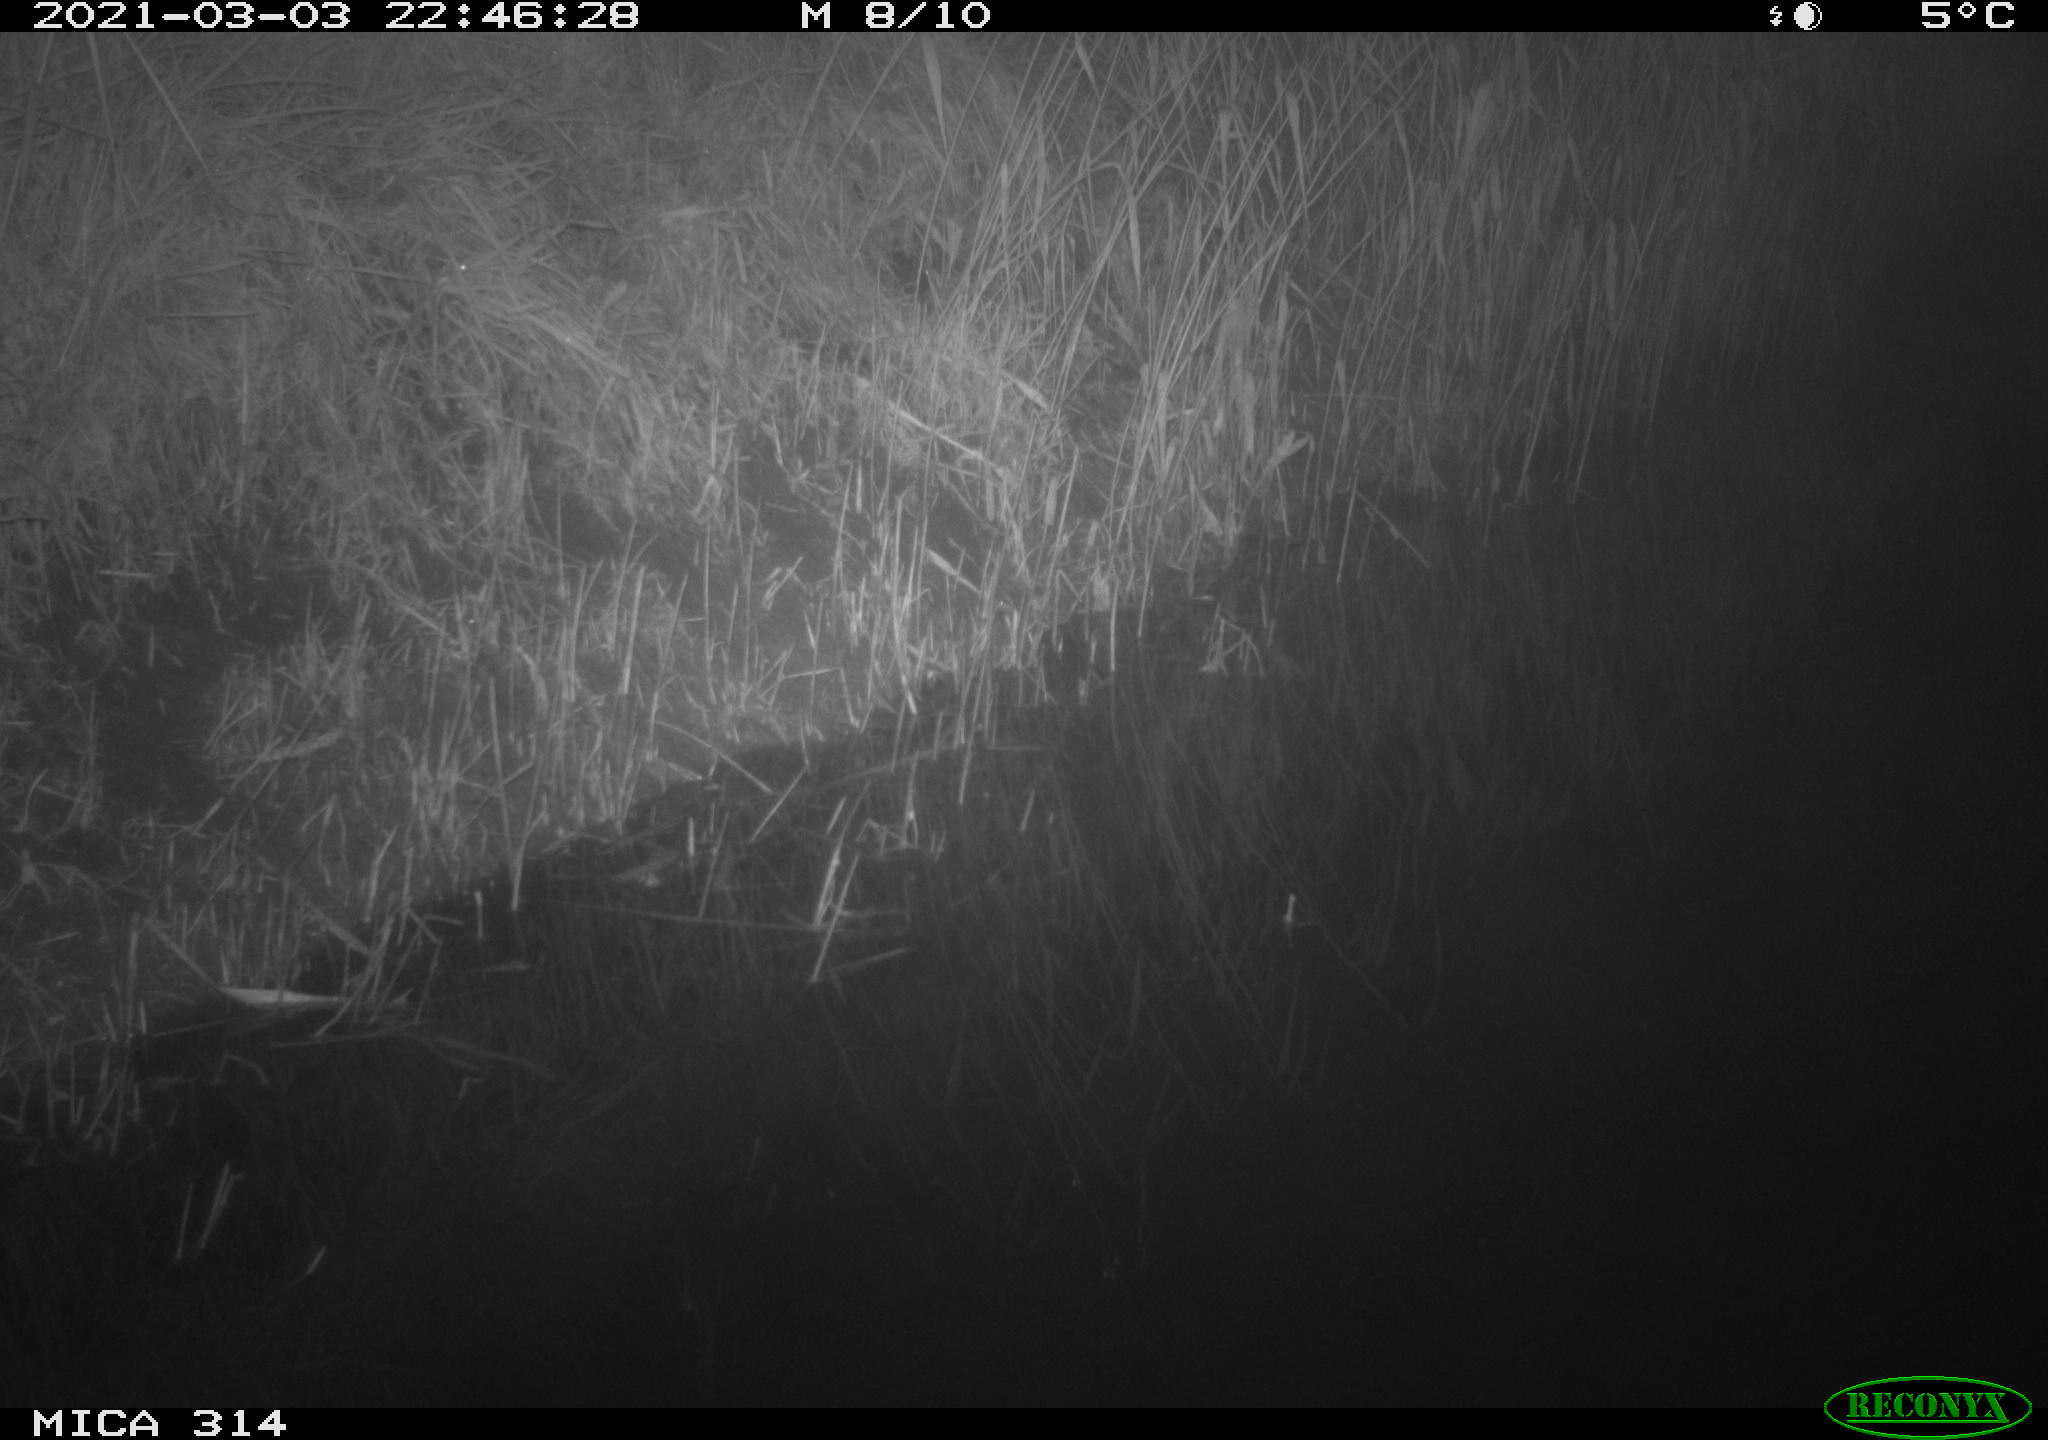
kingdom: Animalia
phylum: Chordata
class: Mammalia
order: Rodentia
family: Muridae
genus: Rattus
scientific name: Rattus norvegicus
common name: Brown rat
